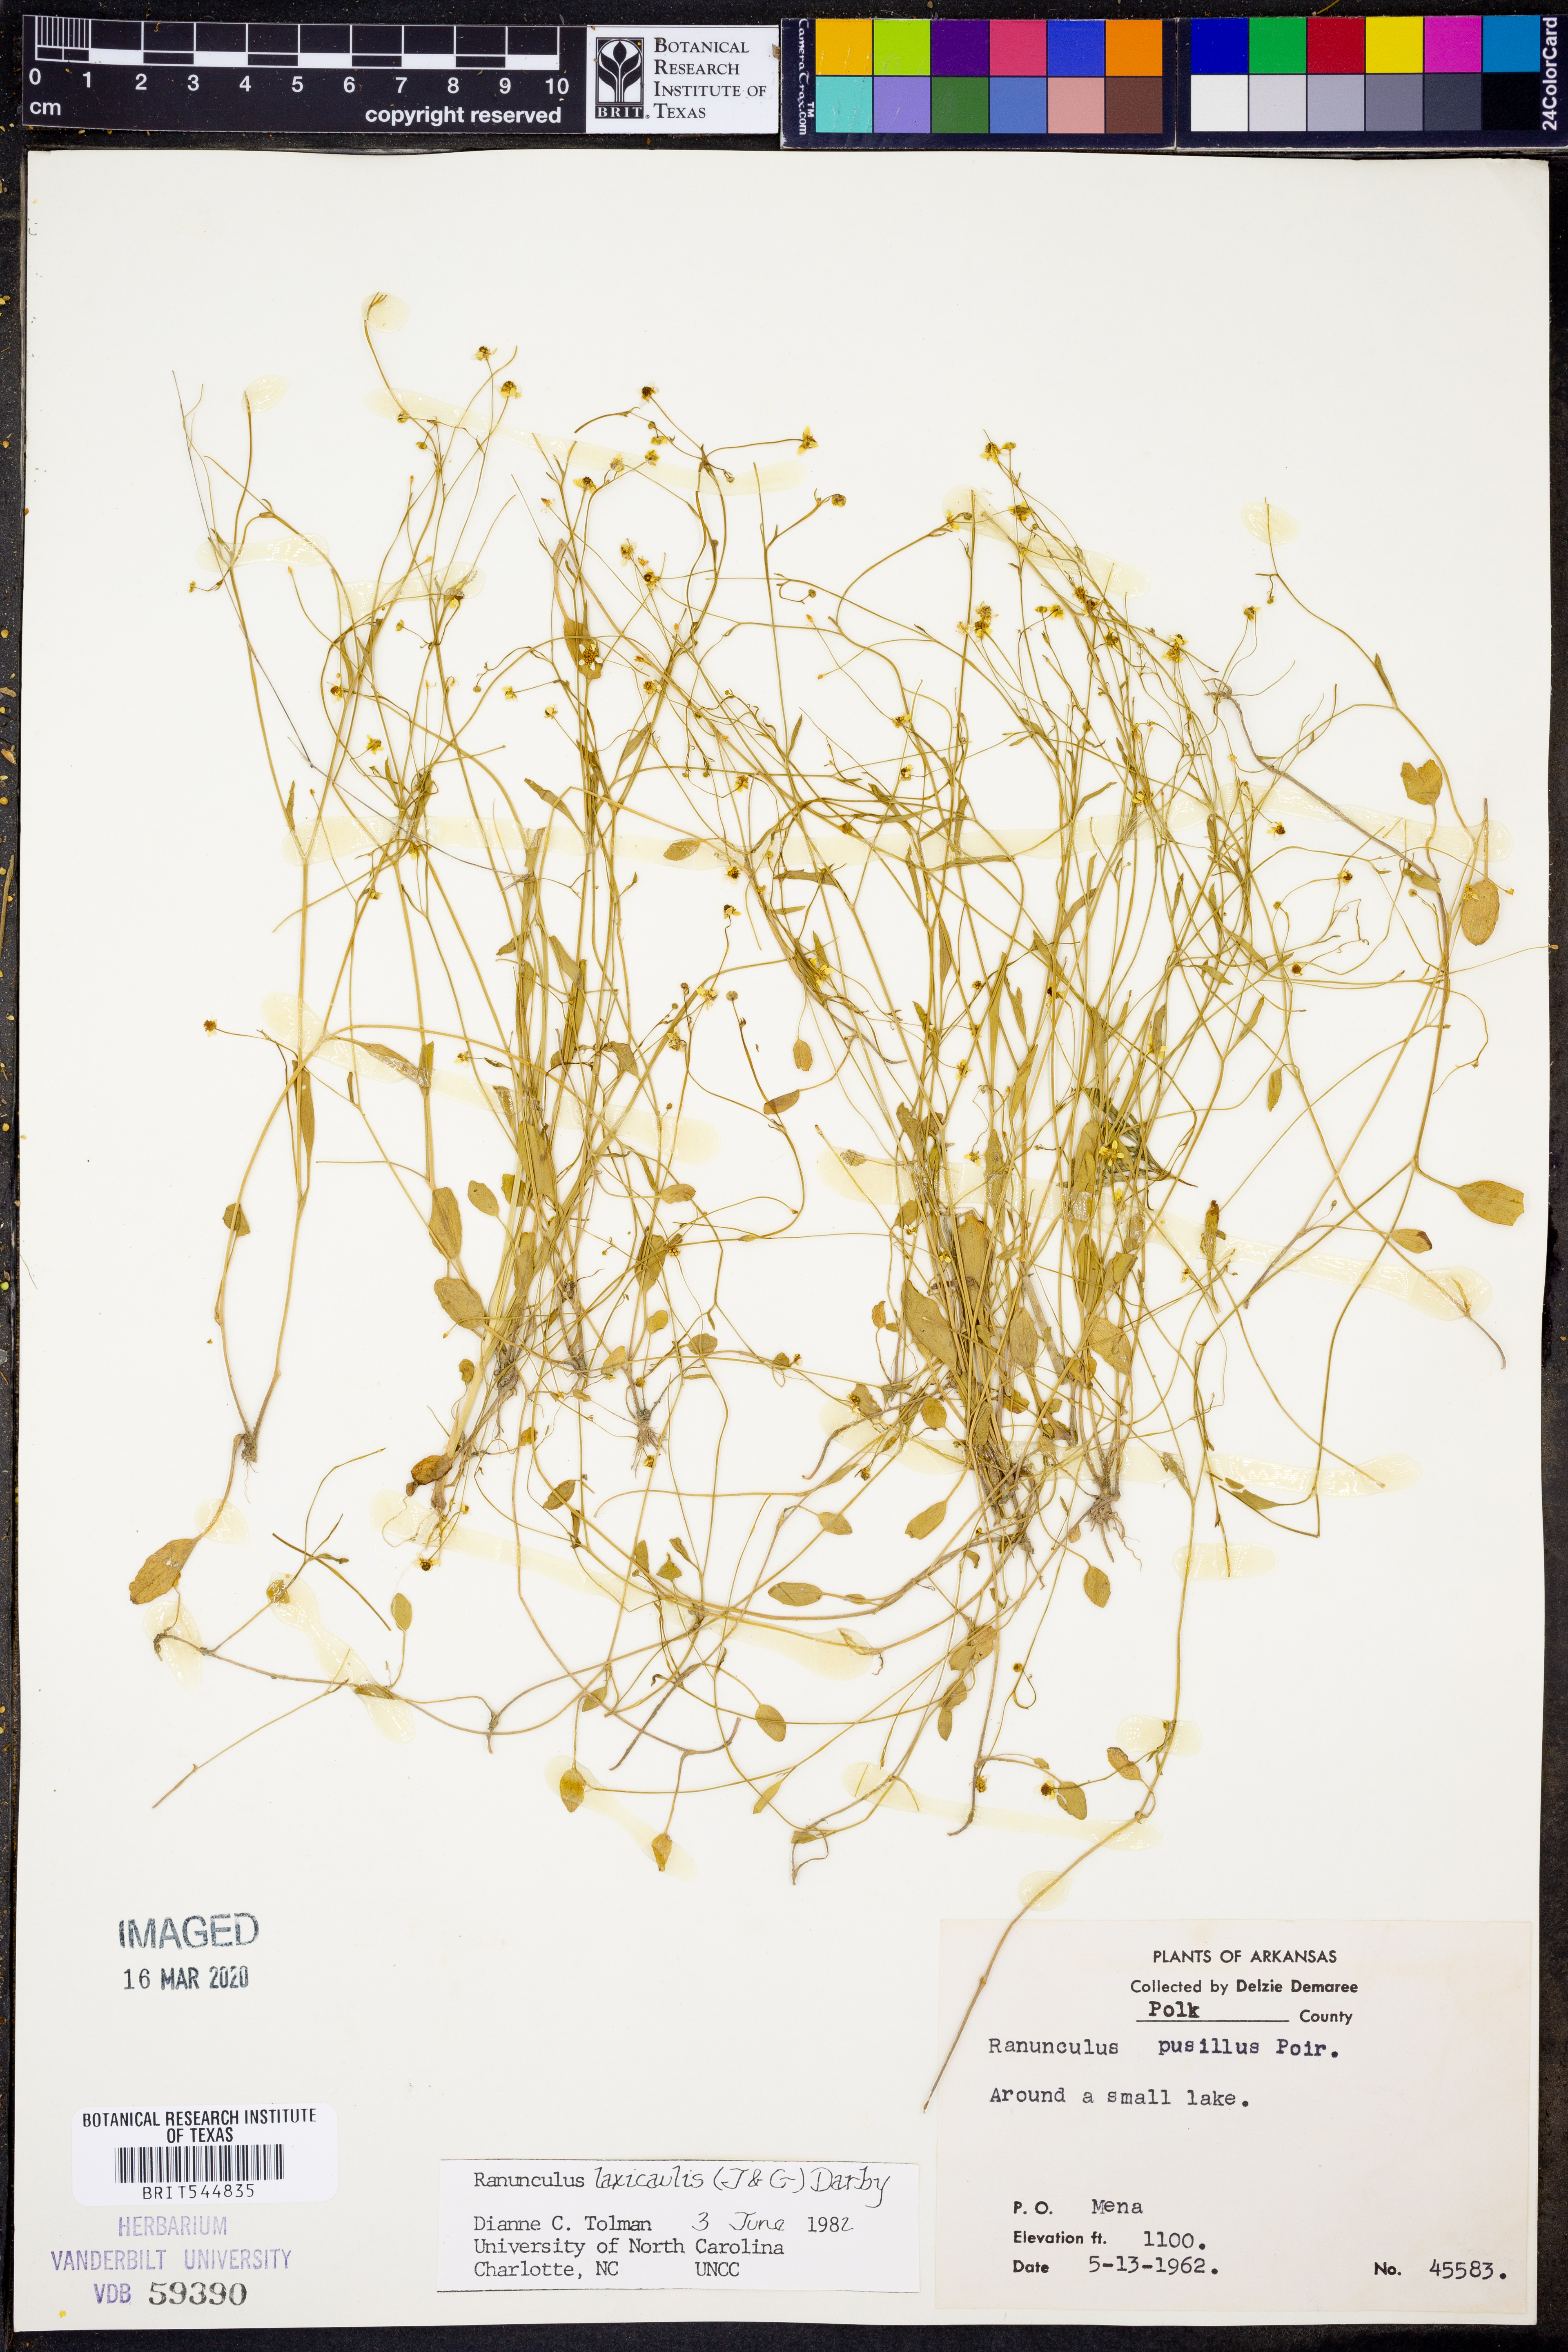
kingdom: Plantae
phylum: Tracheophyta
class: Magnoliopsida
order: Ranunculales
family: Ranunculaceae
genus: Ranunculus
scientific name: Ranunculus laxicaulis
